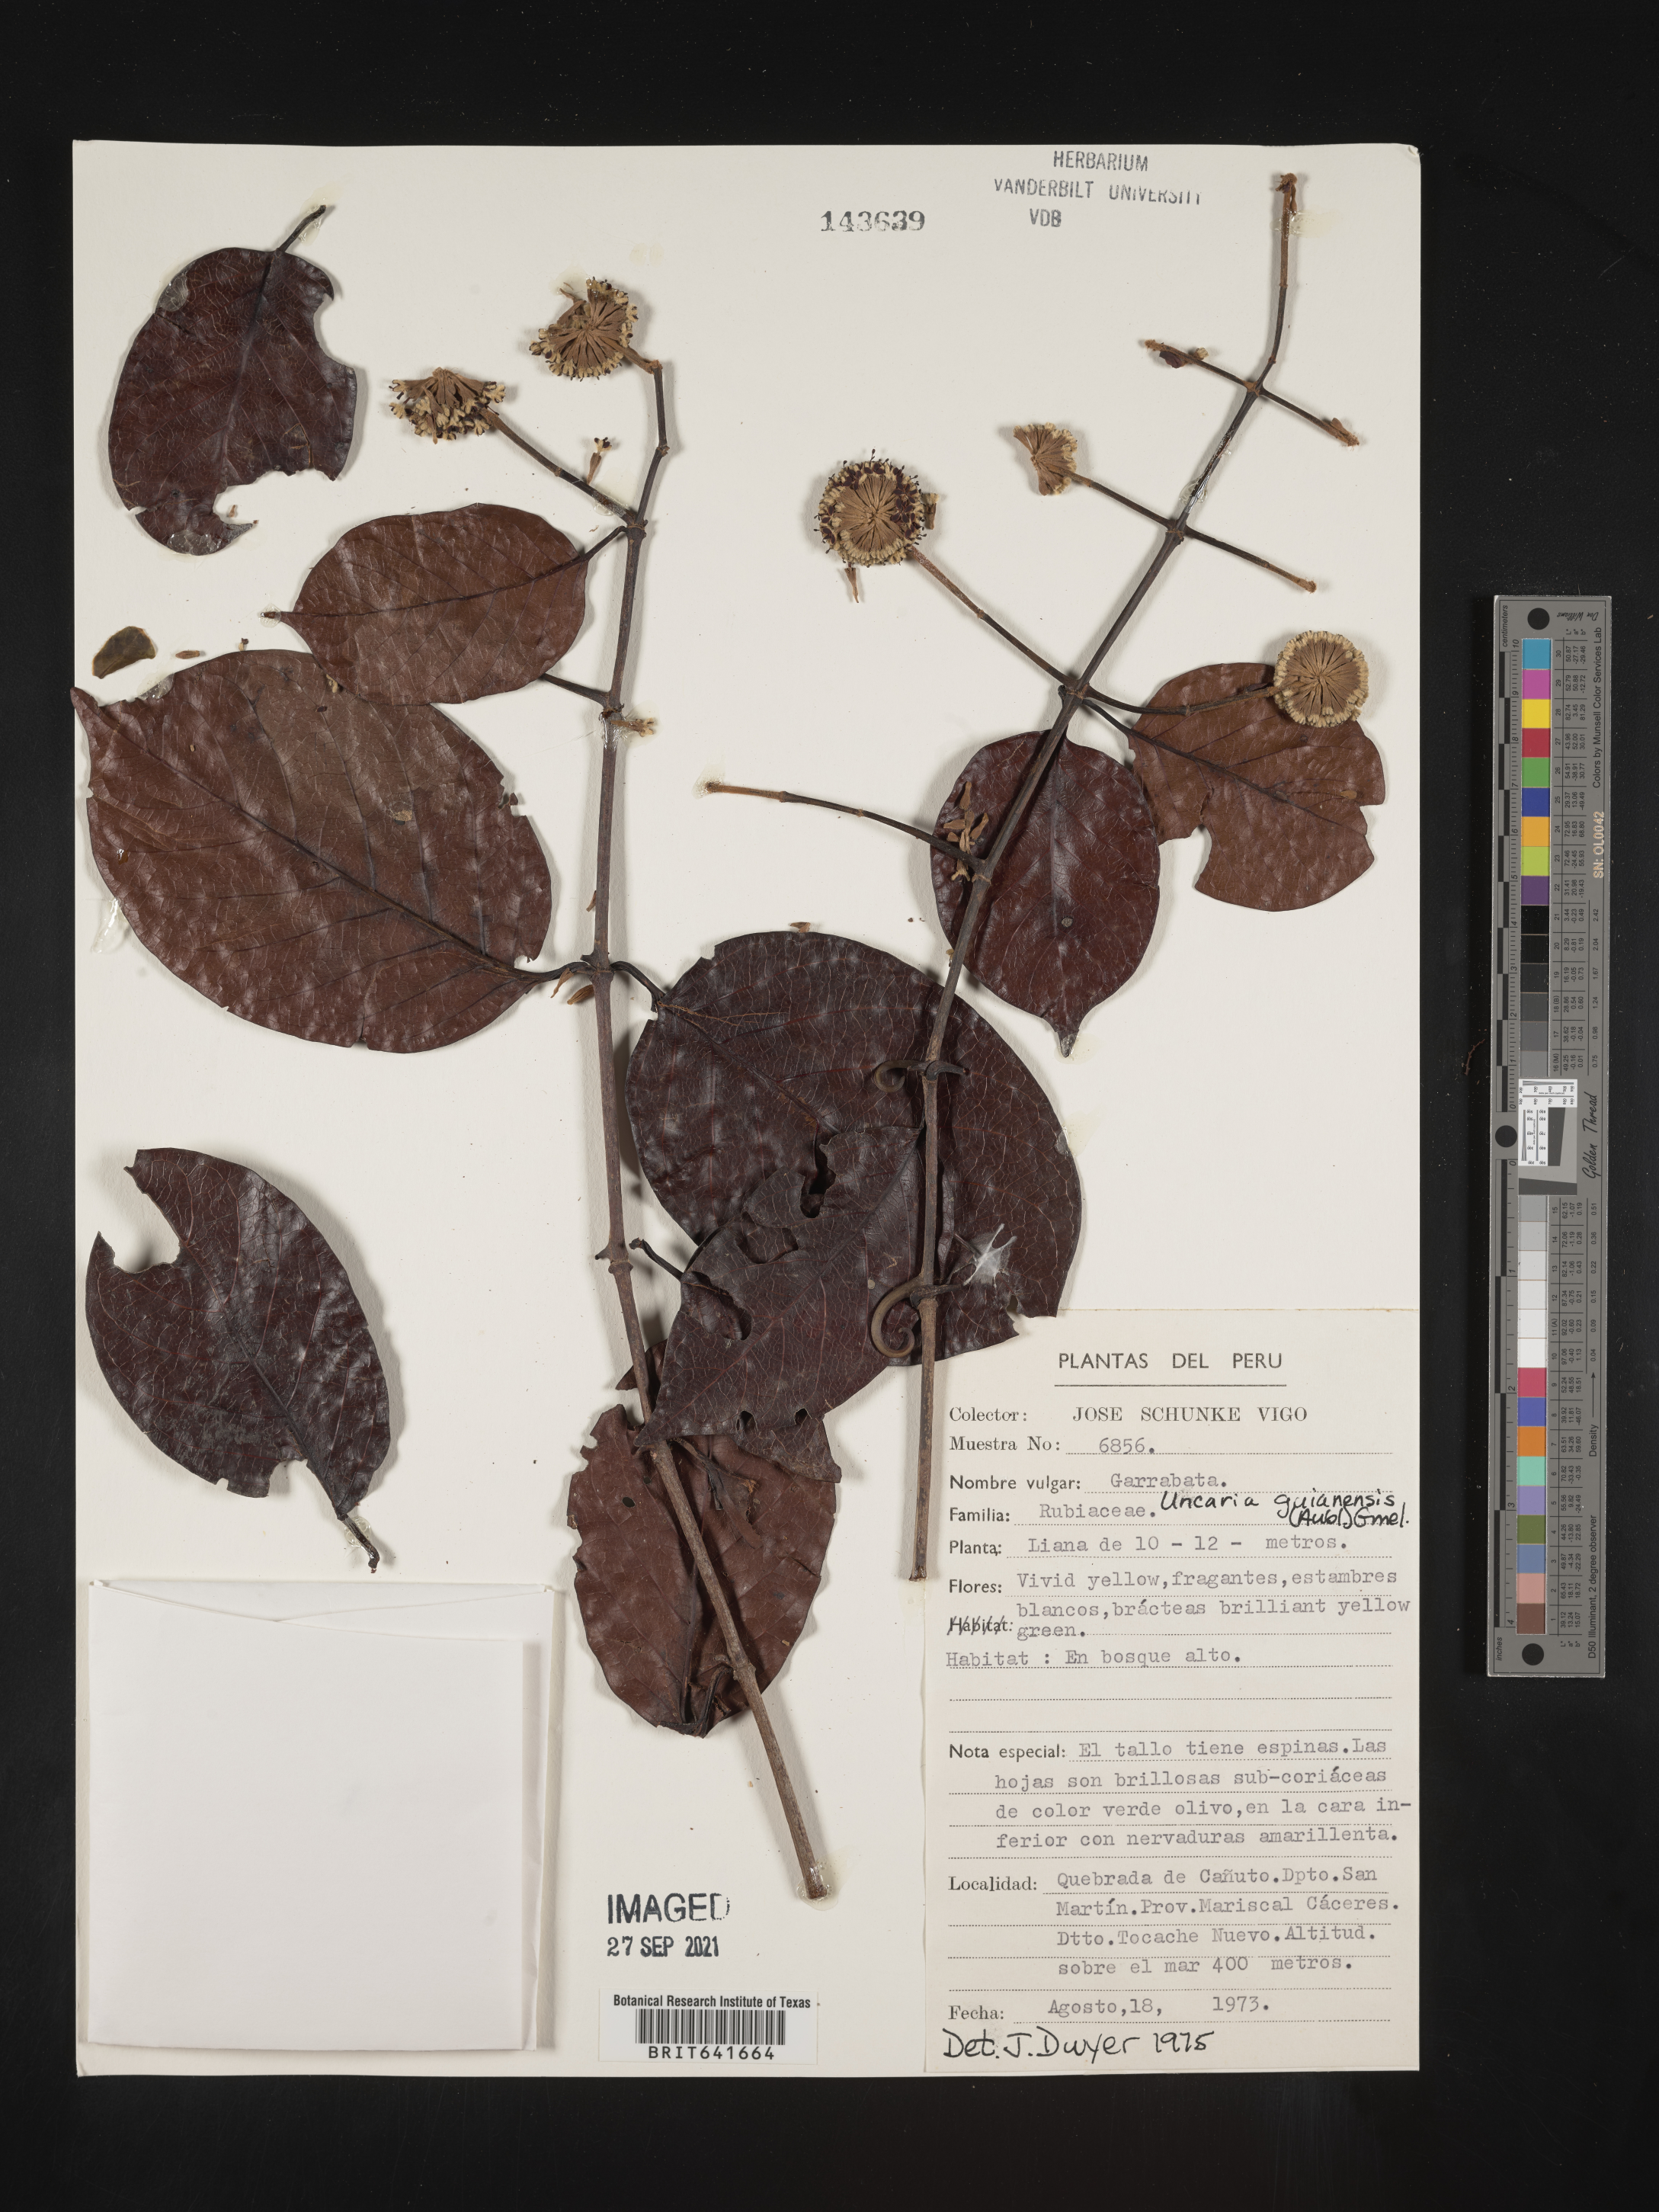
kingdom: Plantae
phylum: Tracheophyta
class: Magnoliopsida
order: Gentianales
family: Rubiaceae
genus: Uncaria
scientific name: Uncaria
